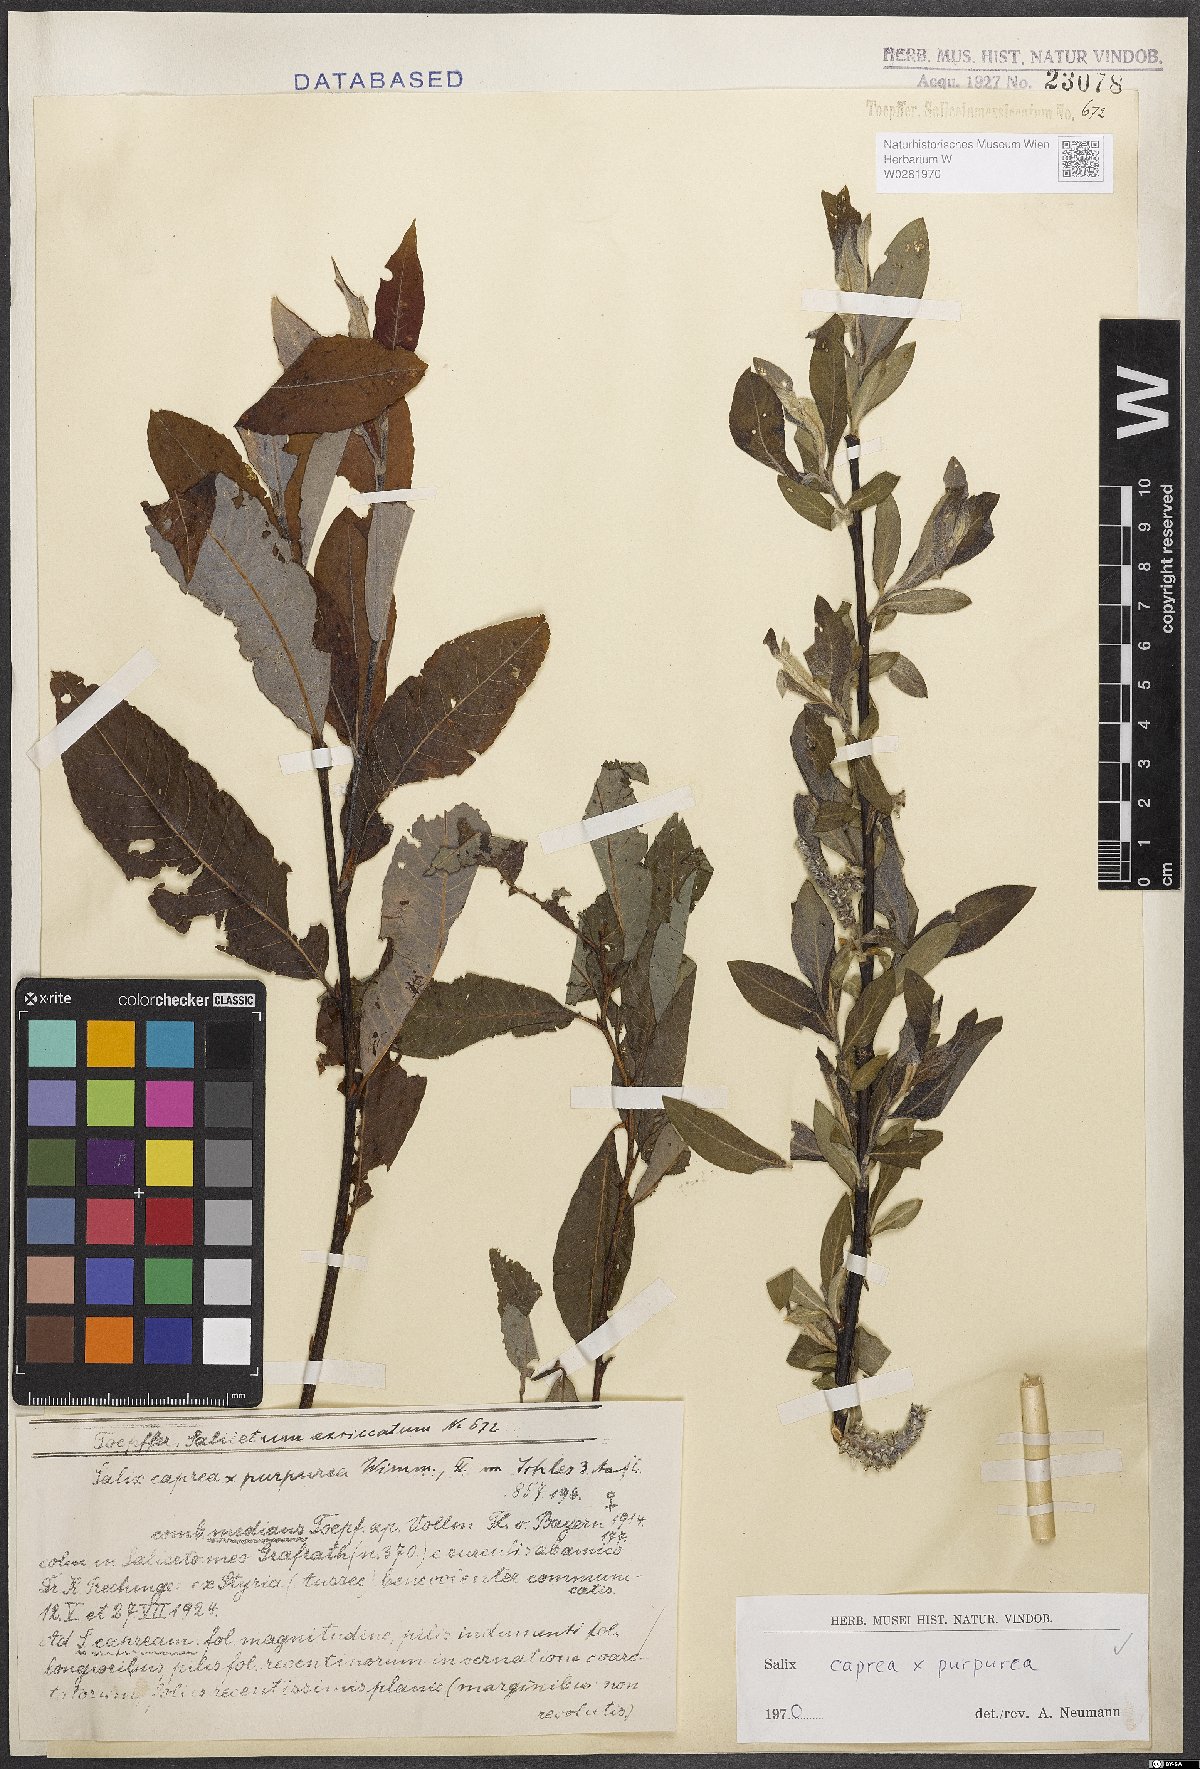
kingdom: Plantae
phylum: Tracheophyta
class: Magnoliopsida
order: Malpighiales
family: Salicaceae
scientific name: Salicaceae
